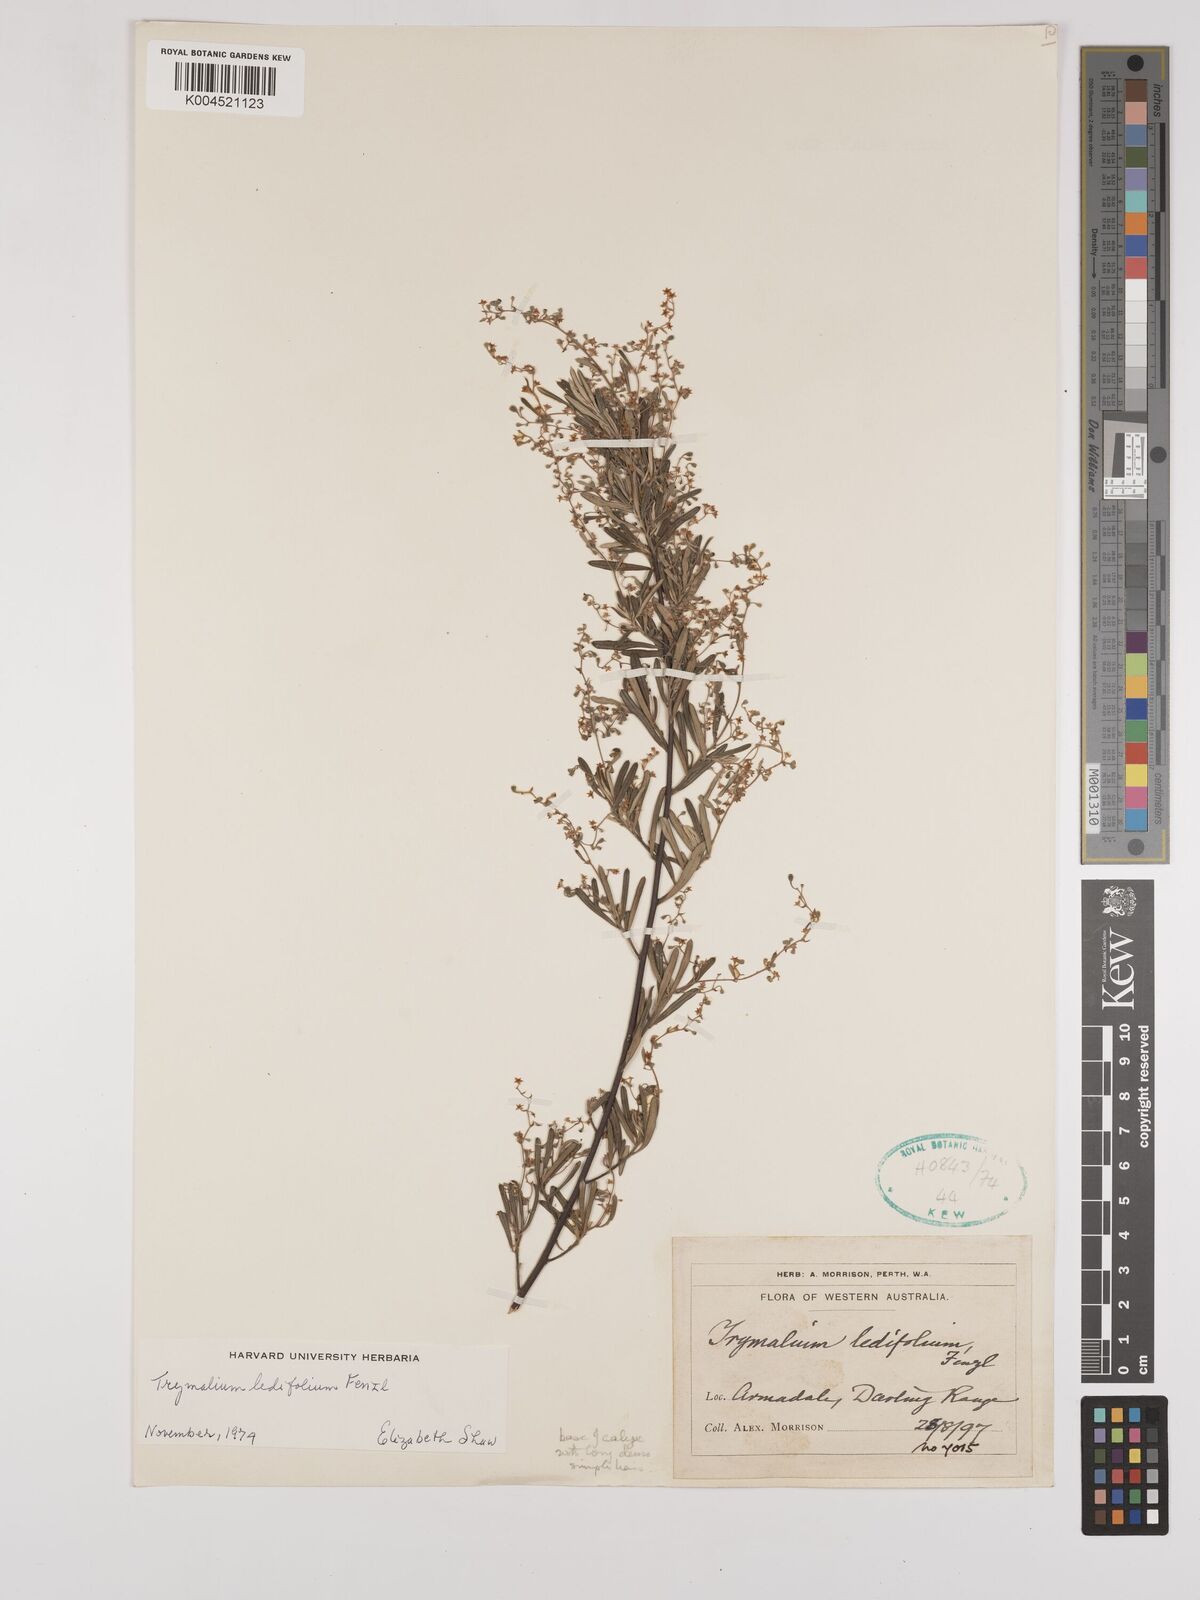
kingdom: Plantae
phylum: Tracheophyta
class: Magnoliopsida
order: Rosales
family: Rhamnaceae
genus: Trymalium
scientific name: Trymalium ledifolium
